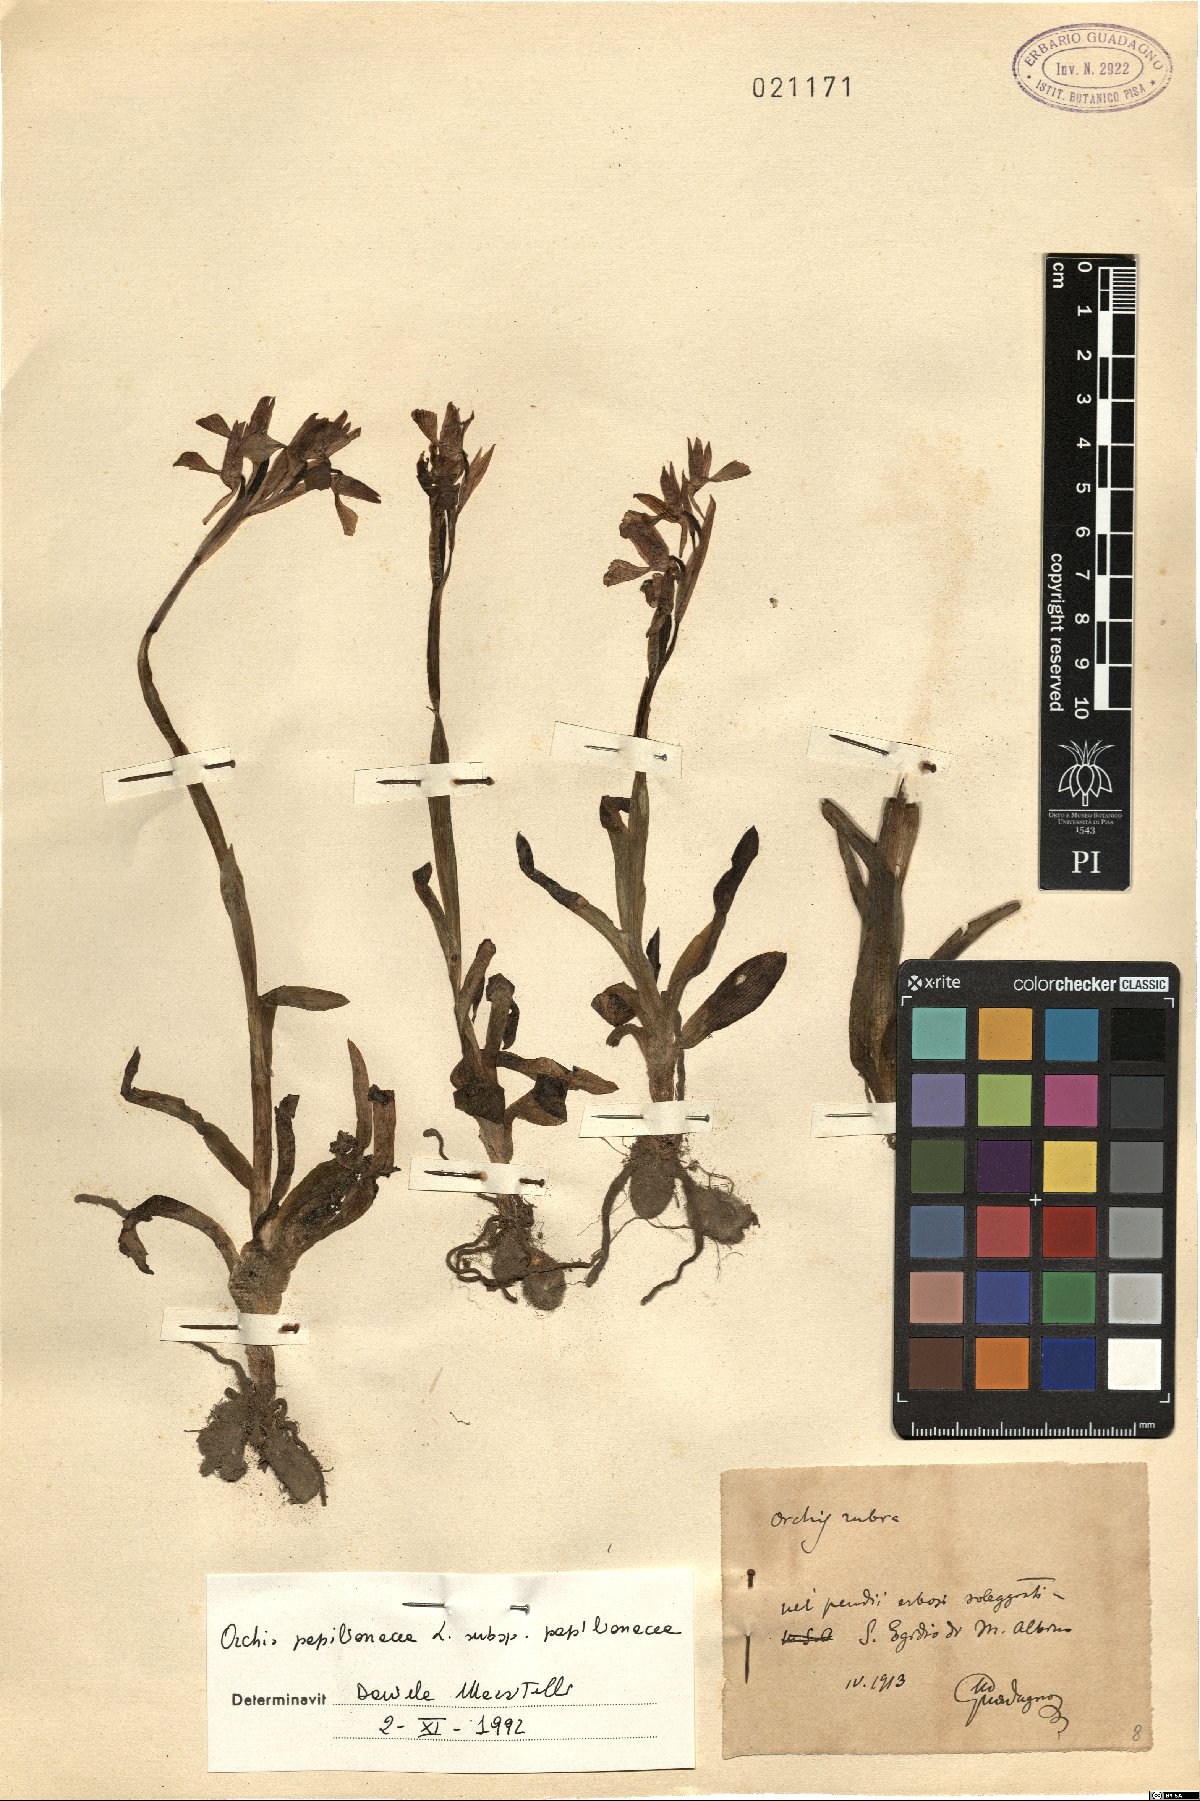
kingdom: Plantae
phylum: Tracheophyta
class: Liliopsida
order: Asparagales
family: Orchidaceae
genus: Anacamptis
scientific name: Anacamptis papilionacea
